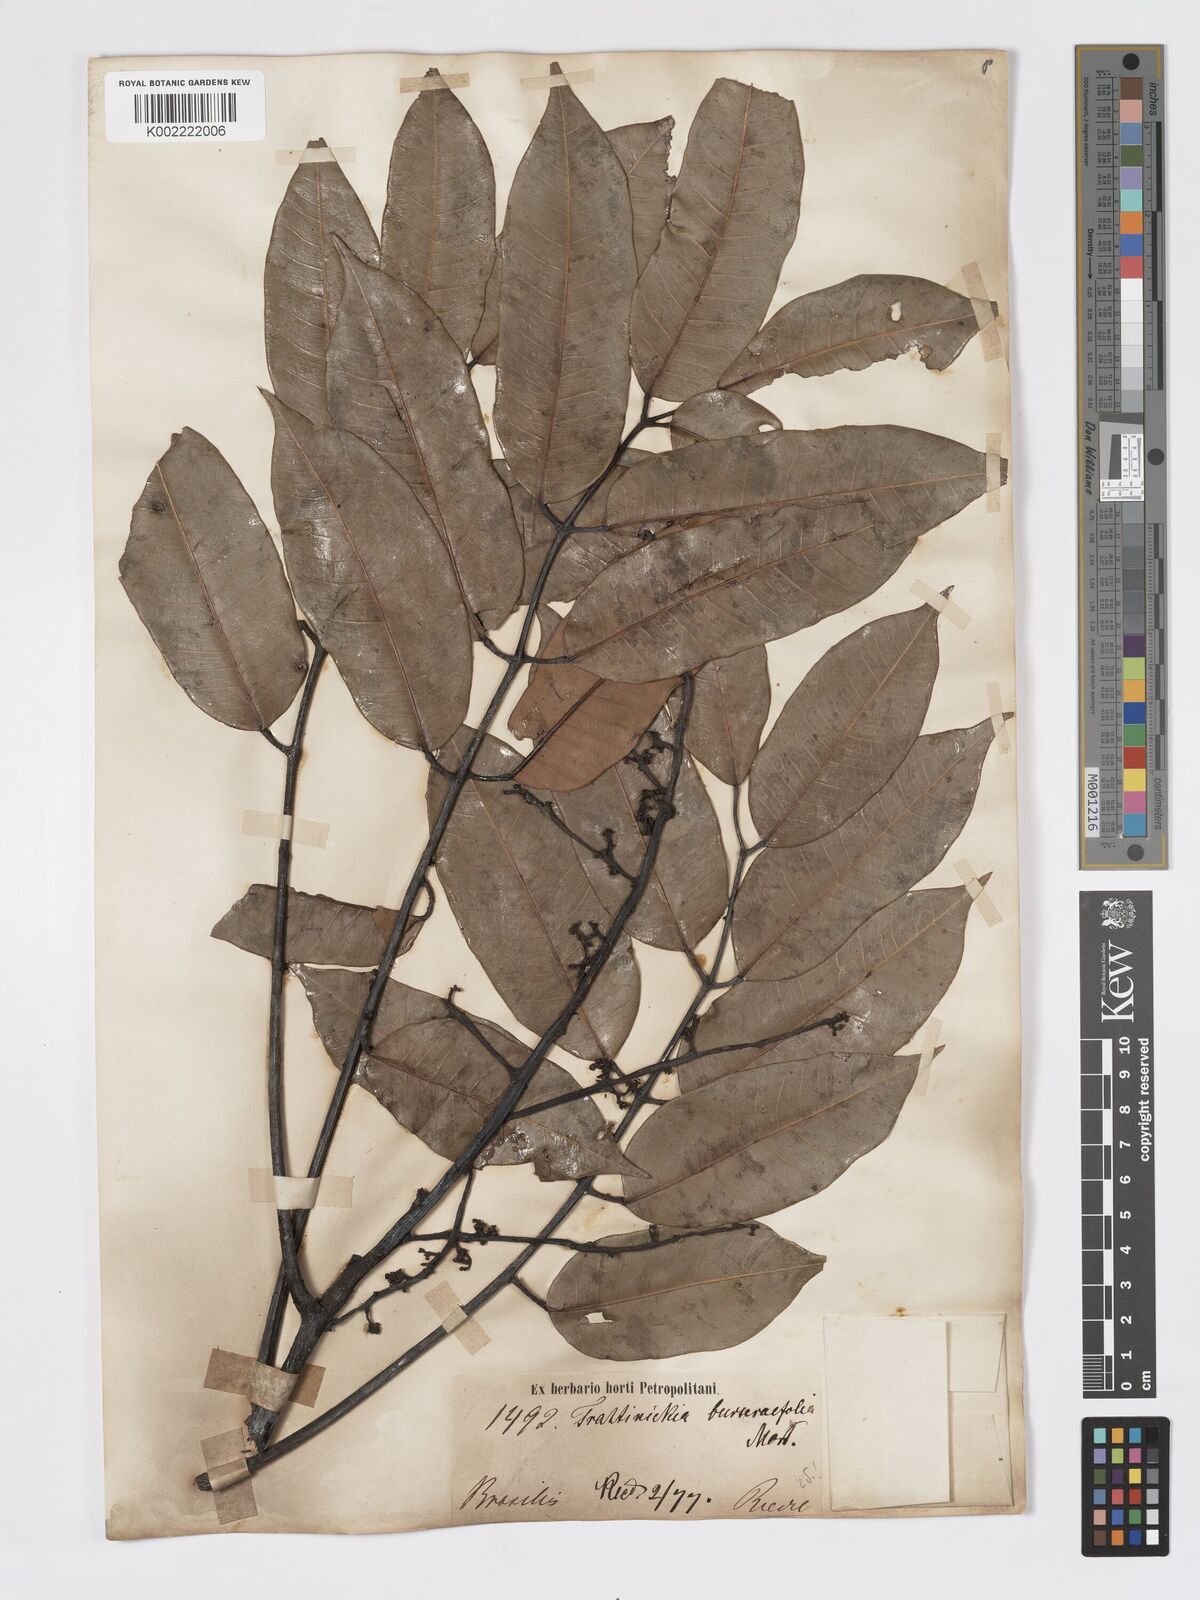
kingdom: Plantae
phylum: Tracheophyta
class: Magnoliopsida
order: Sapindales
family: Burseraceae
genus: Trattinnickia
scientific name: Trattinnickia burserifolia
